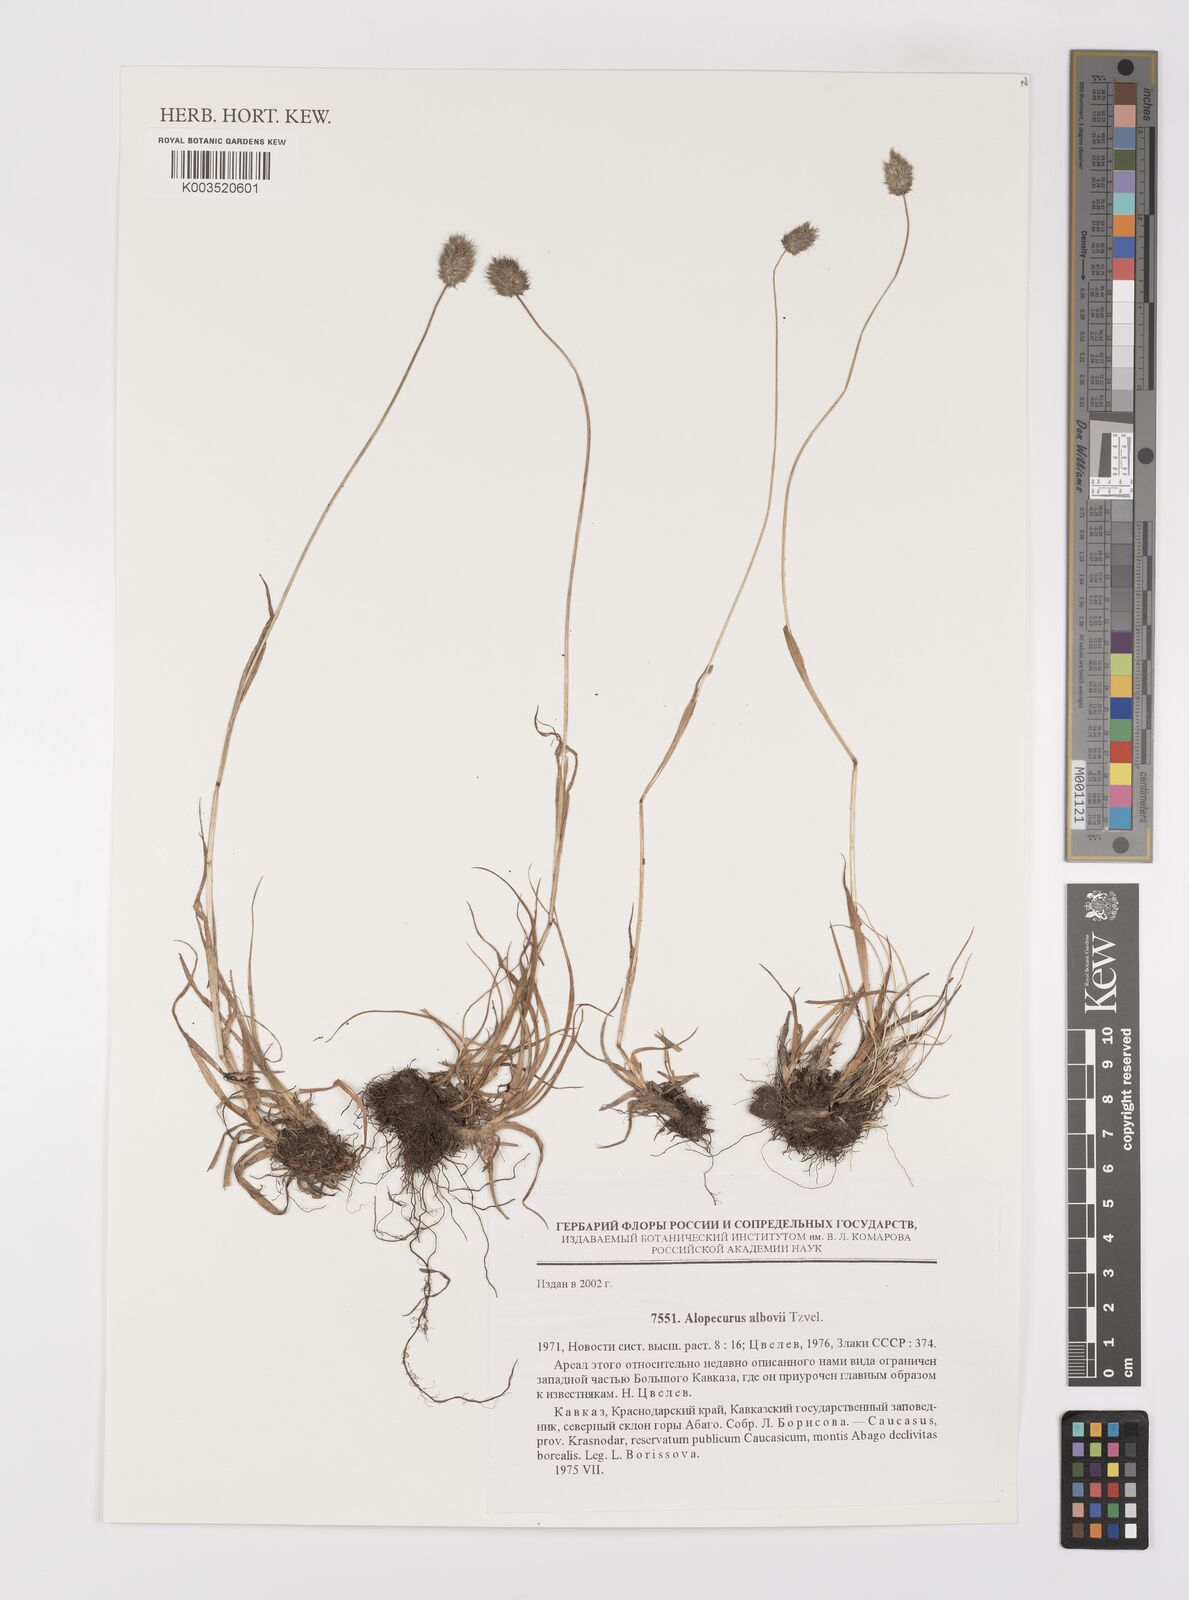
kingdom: Plantae
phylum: Tracheophyta
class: Liliopsida
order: Poales
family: Poaceae
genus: Alopecurus
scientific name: Alopecurus albovii
